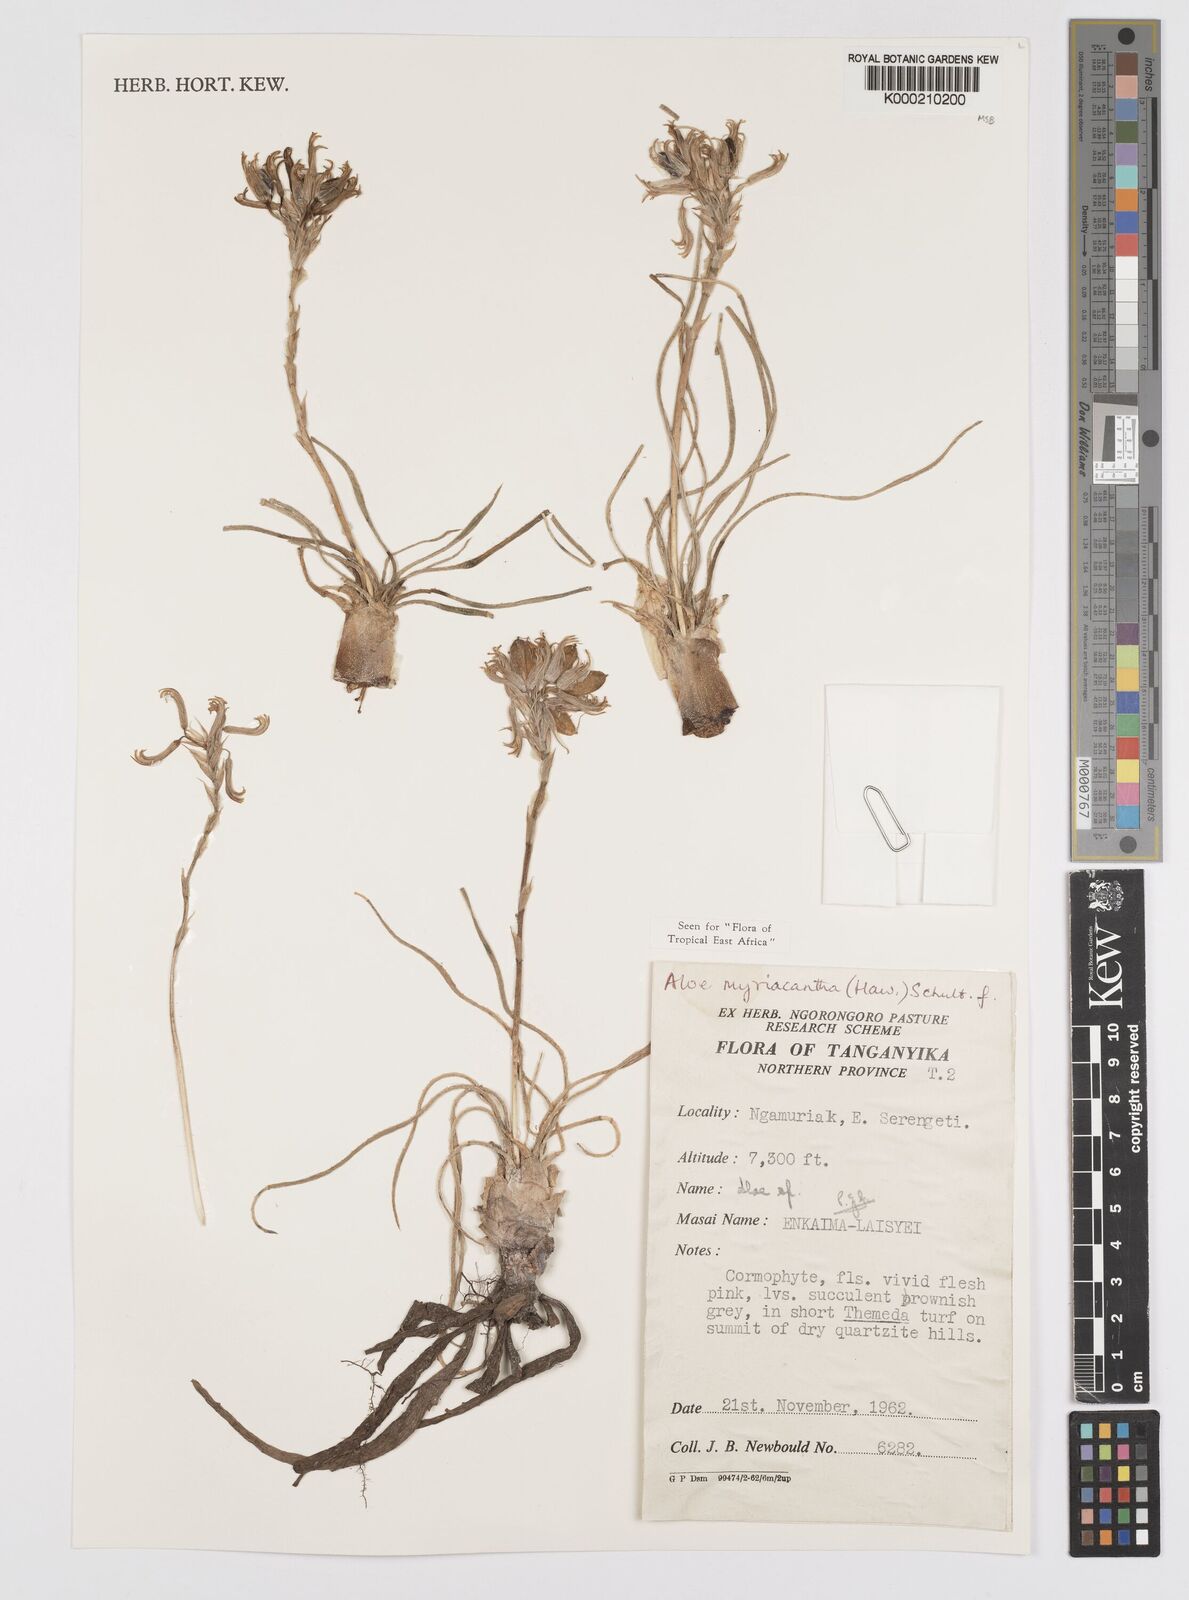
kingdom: Plantae
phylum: Tracheophyta
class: Liliopsida
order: Asparagales
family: Asphodelaceae
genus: Aloe
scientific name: Aloe
